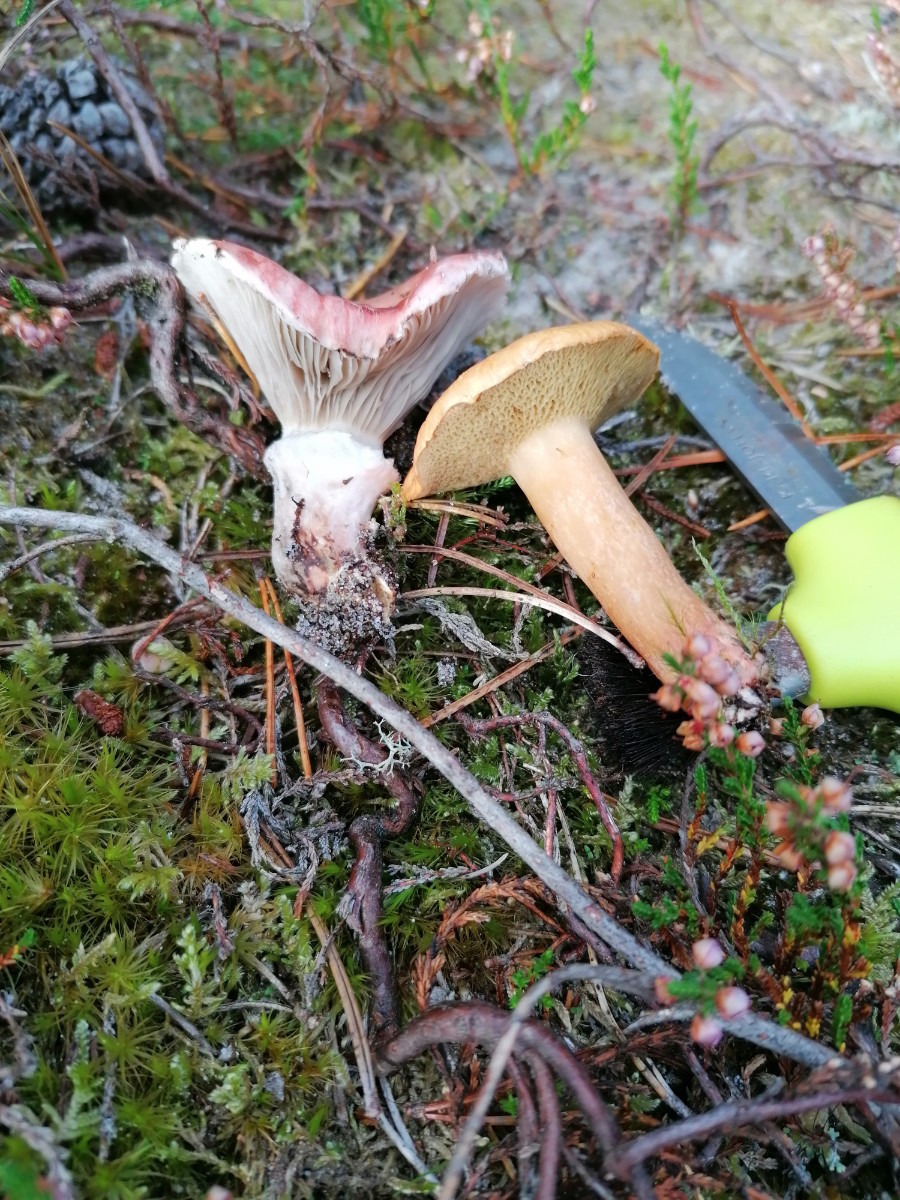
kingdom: Fungi
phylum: Basidiomycota
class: Agaricomycetes
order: Boletales
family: Suillaceae
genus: Suillus
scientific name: Suillus bovinus
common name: grovporet slimrørhat
